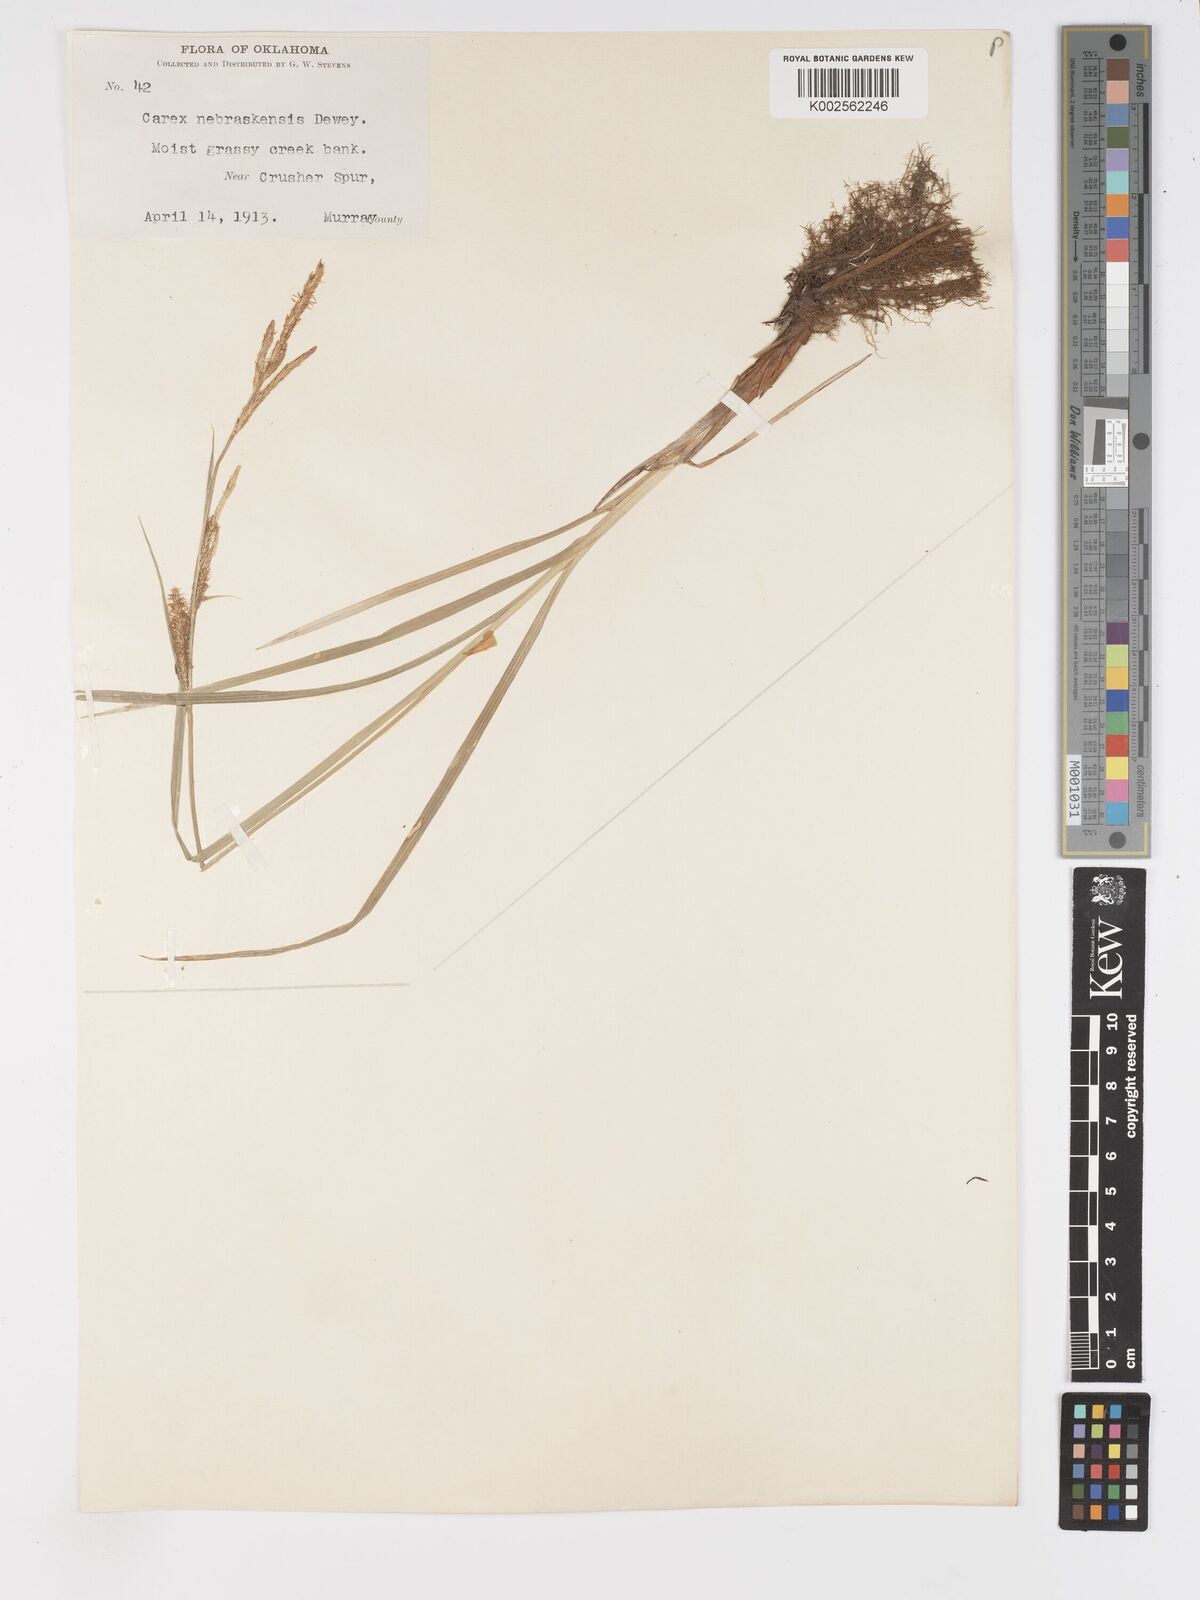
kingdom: Plantae
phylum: Tracheophyta
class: Liliopsida
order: Poales
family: Cyperaceae
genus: Carex
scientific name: Carex nebrascensis
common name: Nebraska sedge
